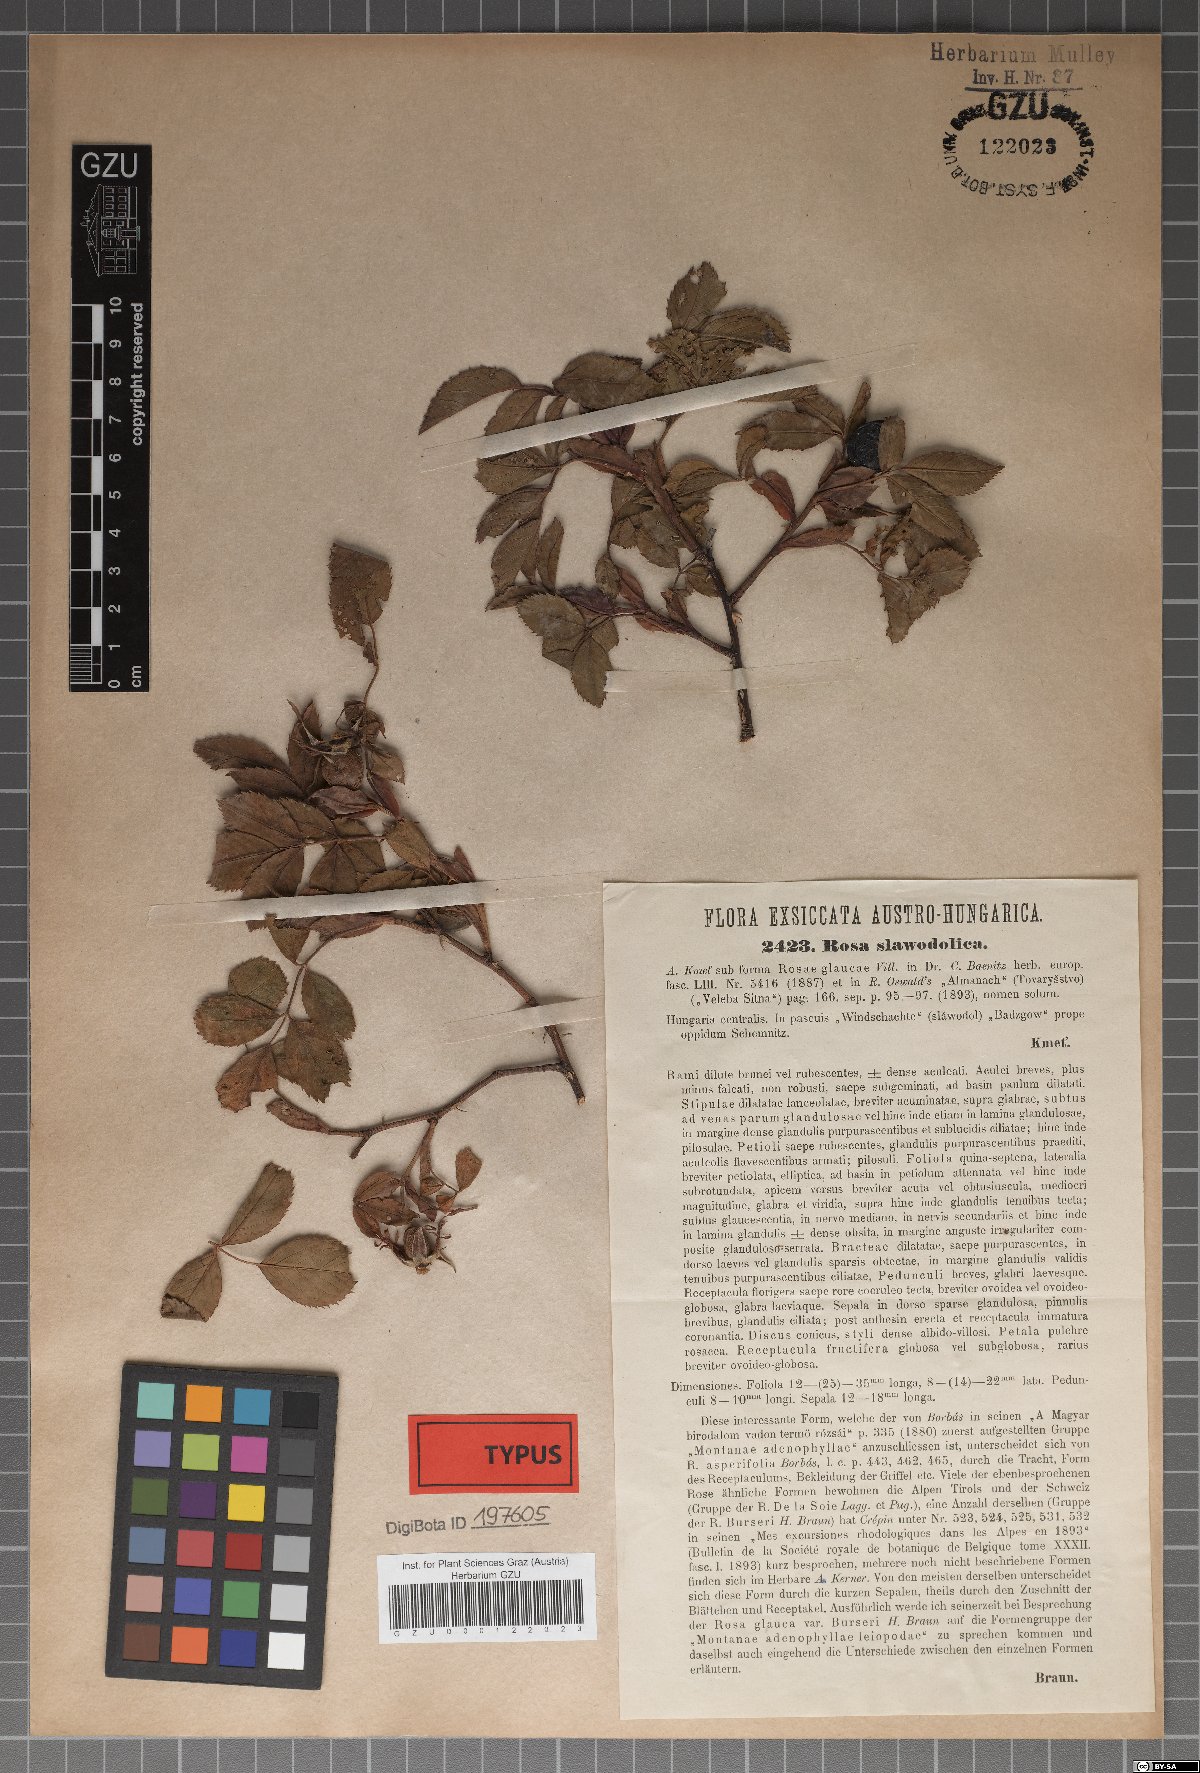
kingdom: Plantae
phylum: Tracheophyta
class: Magnoliopsida
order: Rosales
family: Rosaceae
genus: Rosa
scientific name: Rosa subcanina
